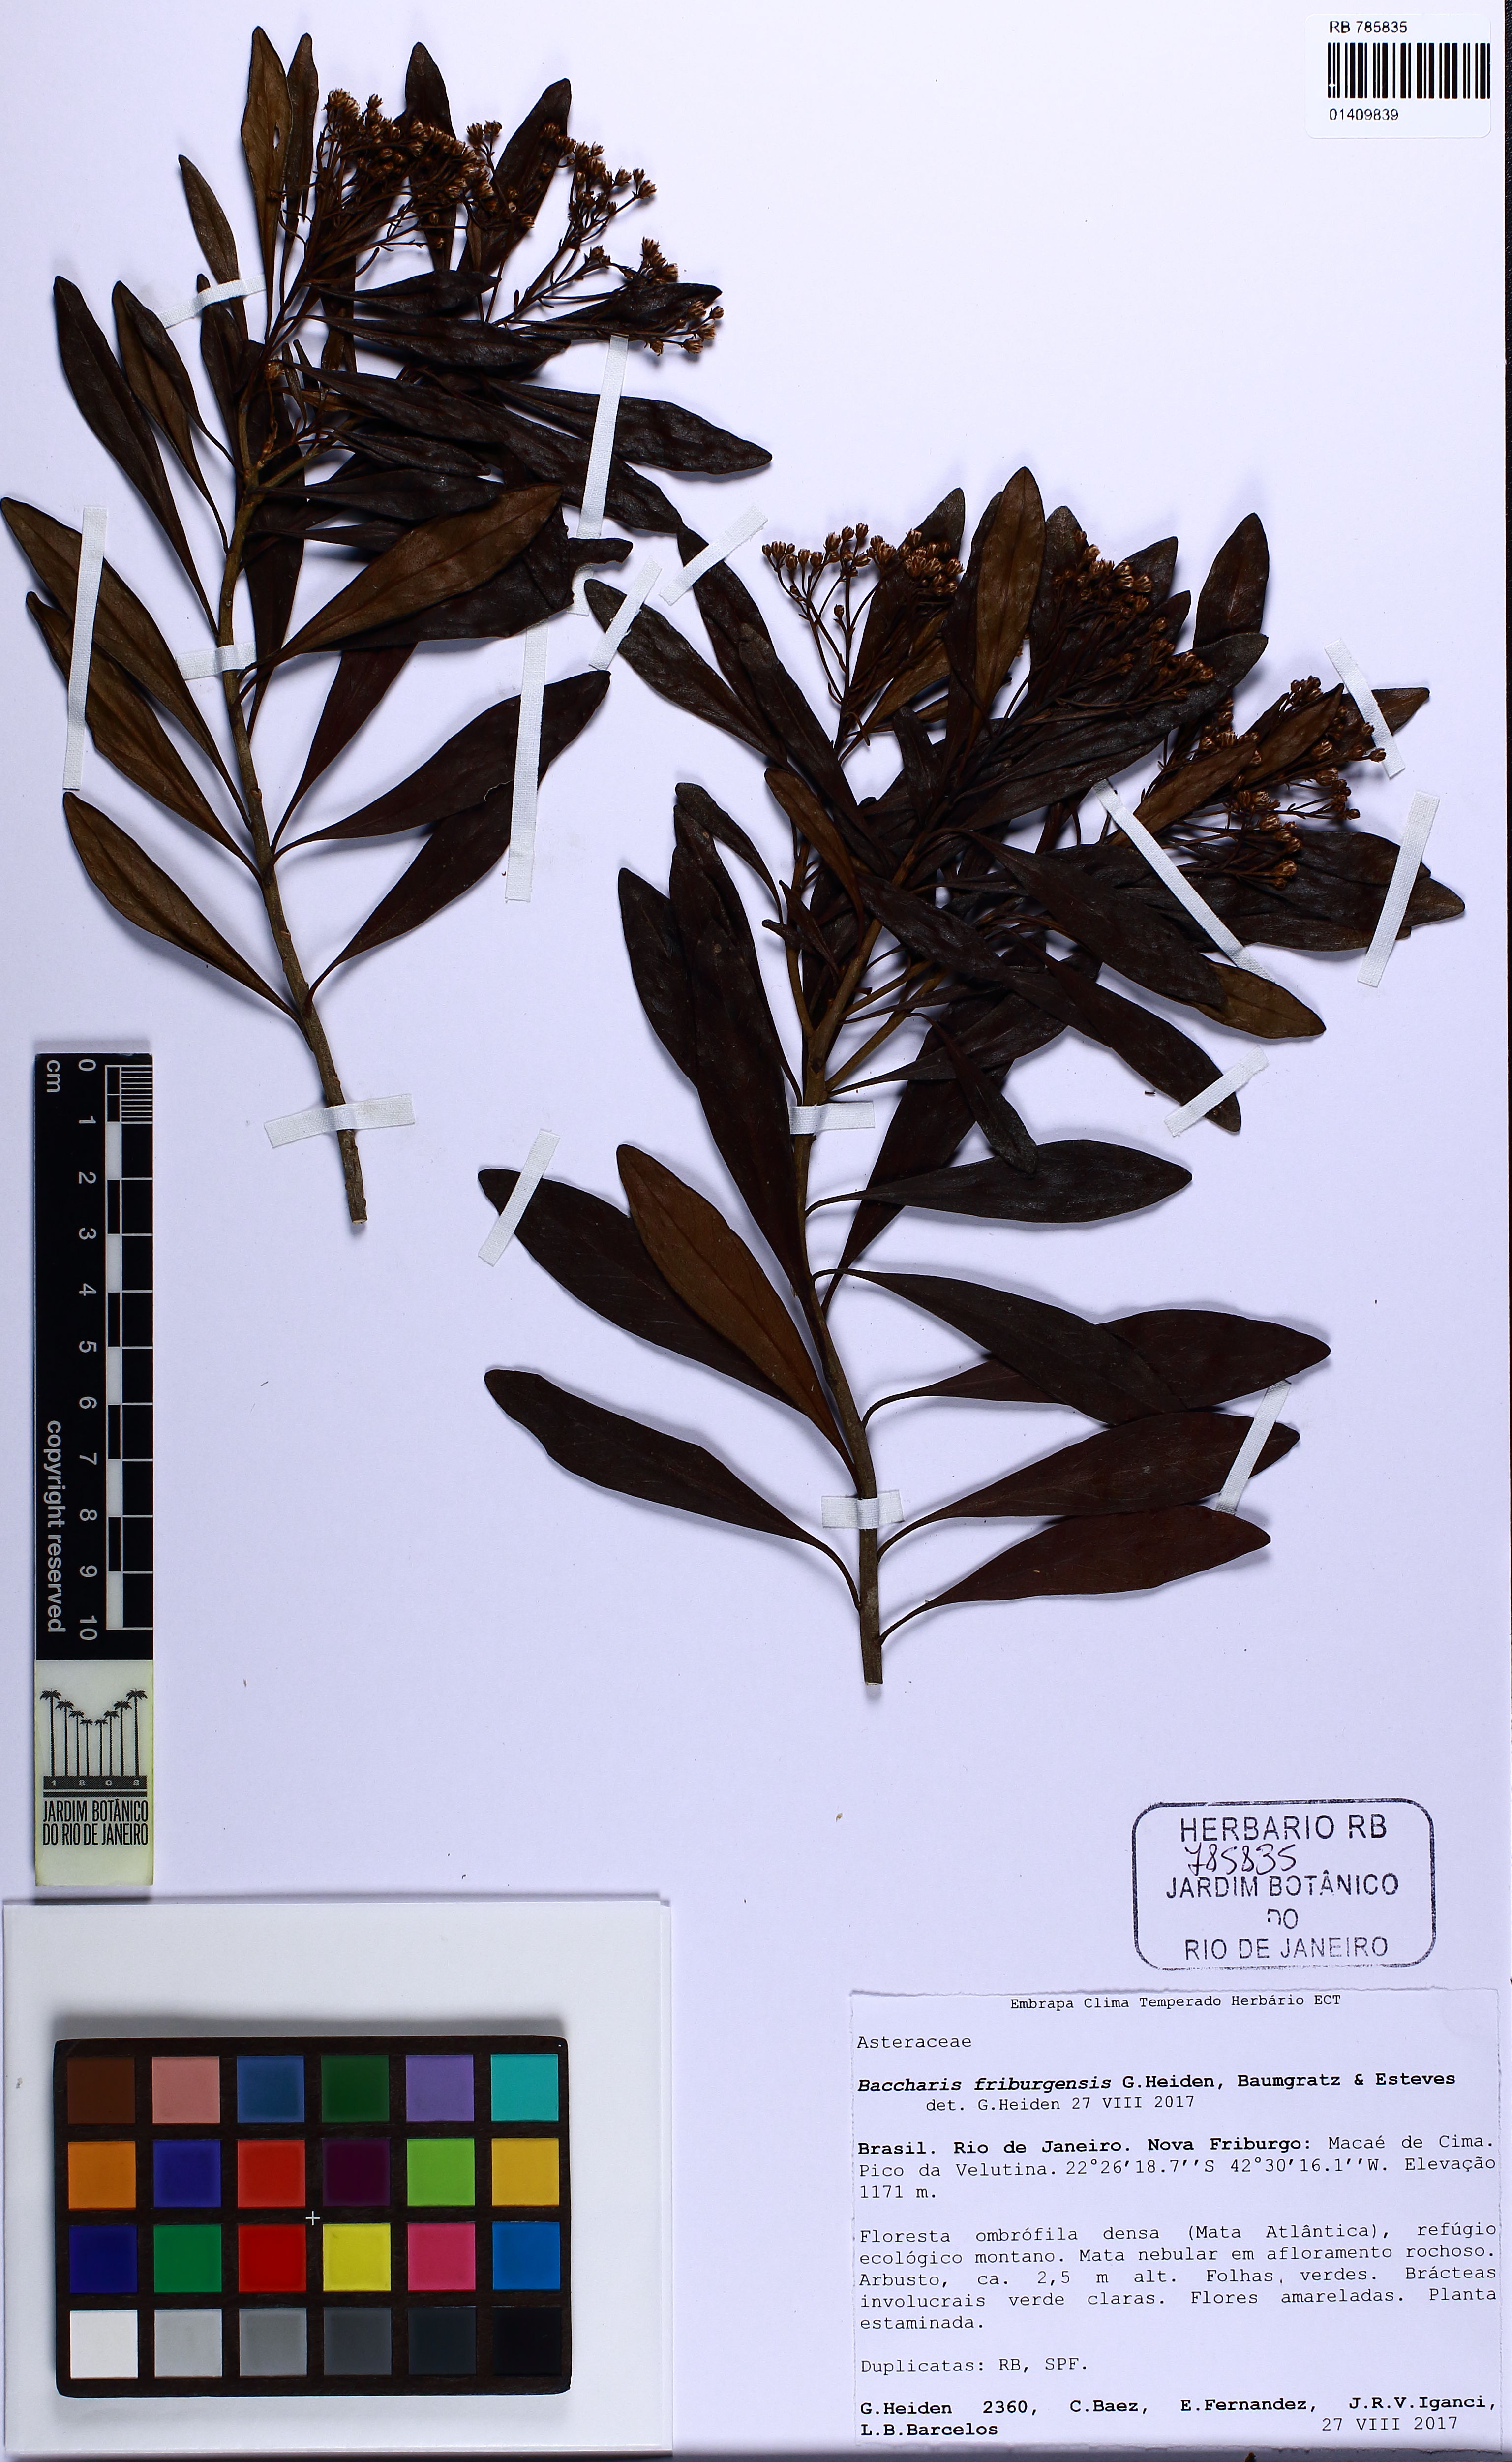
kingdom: Plantae
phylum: Tracheophyta
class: Magnoliopsida
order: Asterales
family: Asteraceae
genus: Baccharis
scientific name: Baccharis friburgensis
